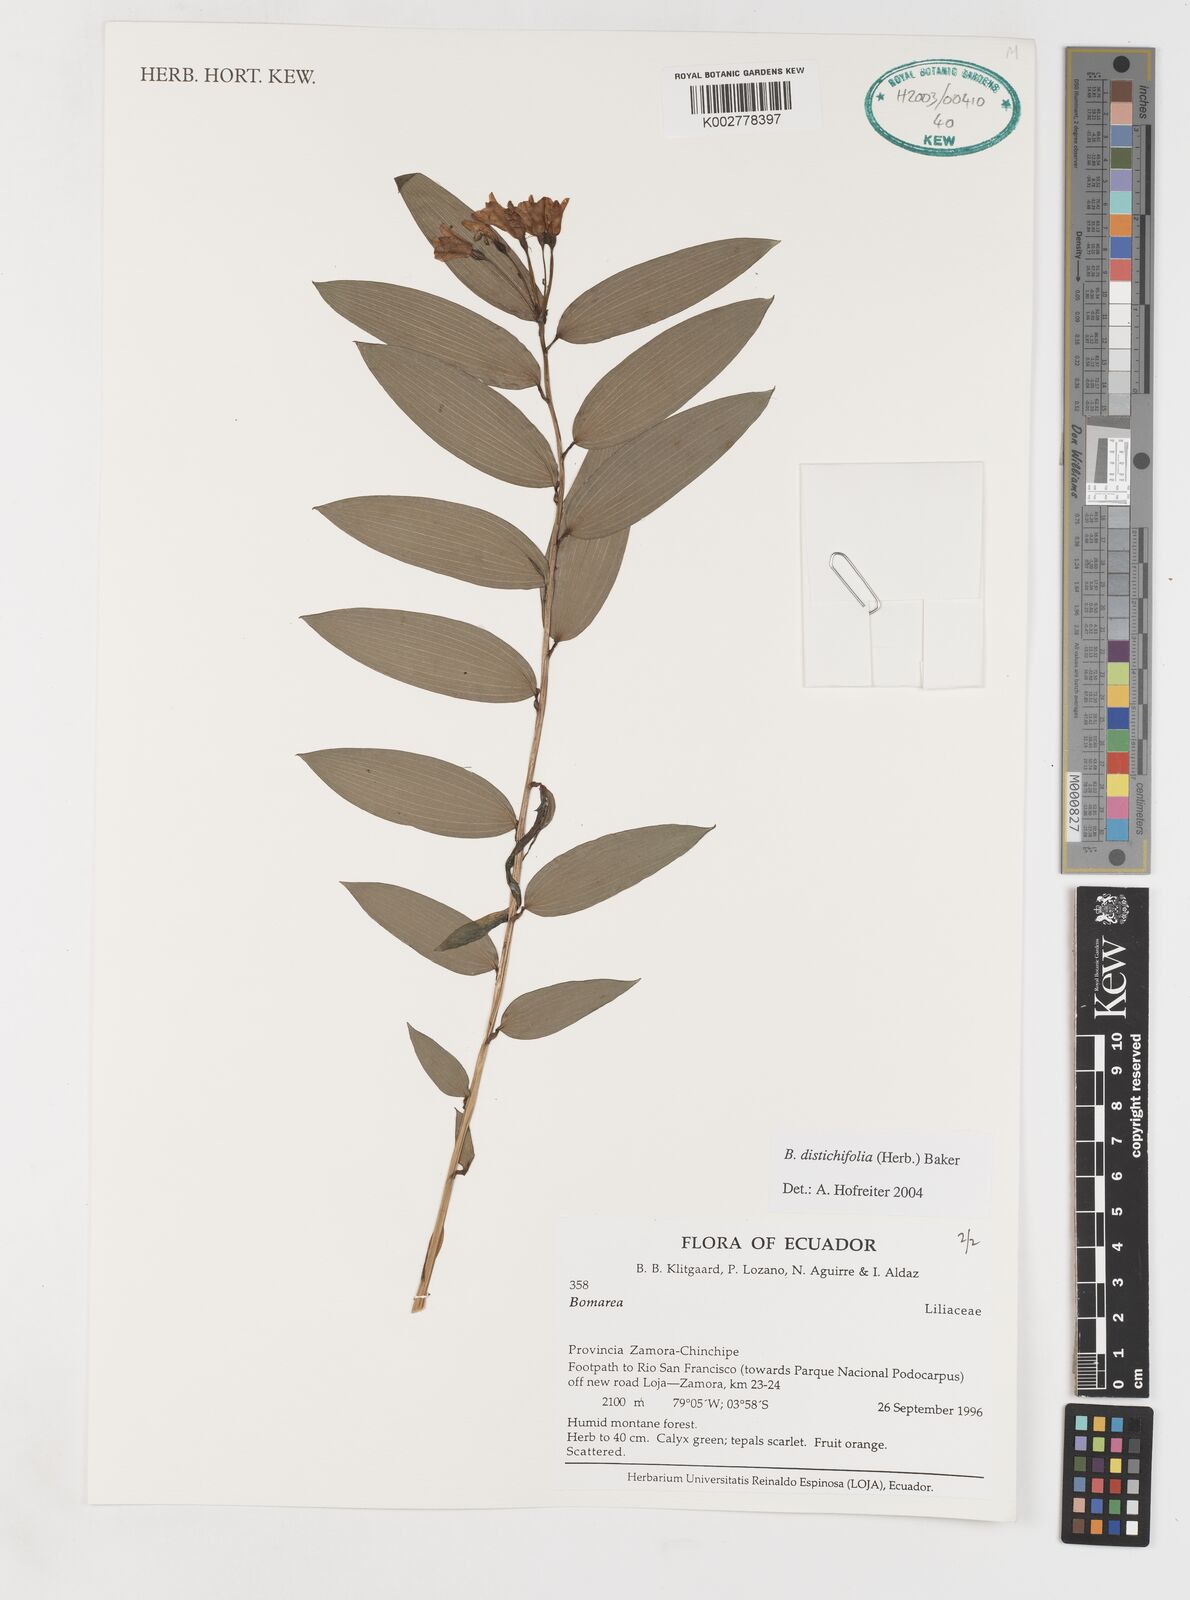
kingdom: Plantae
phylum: Tracheophyta
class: Liliopsida
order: Liliales
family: Alstroemeriaceae
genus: Bomarea
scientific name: Bomarea distichifolia
